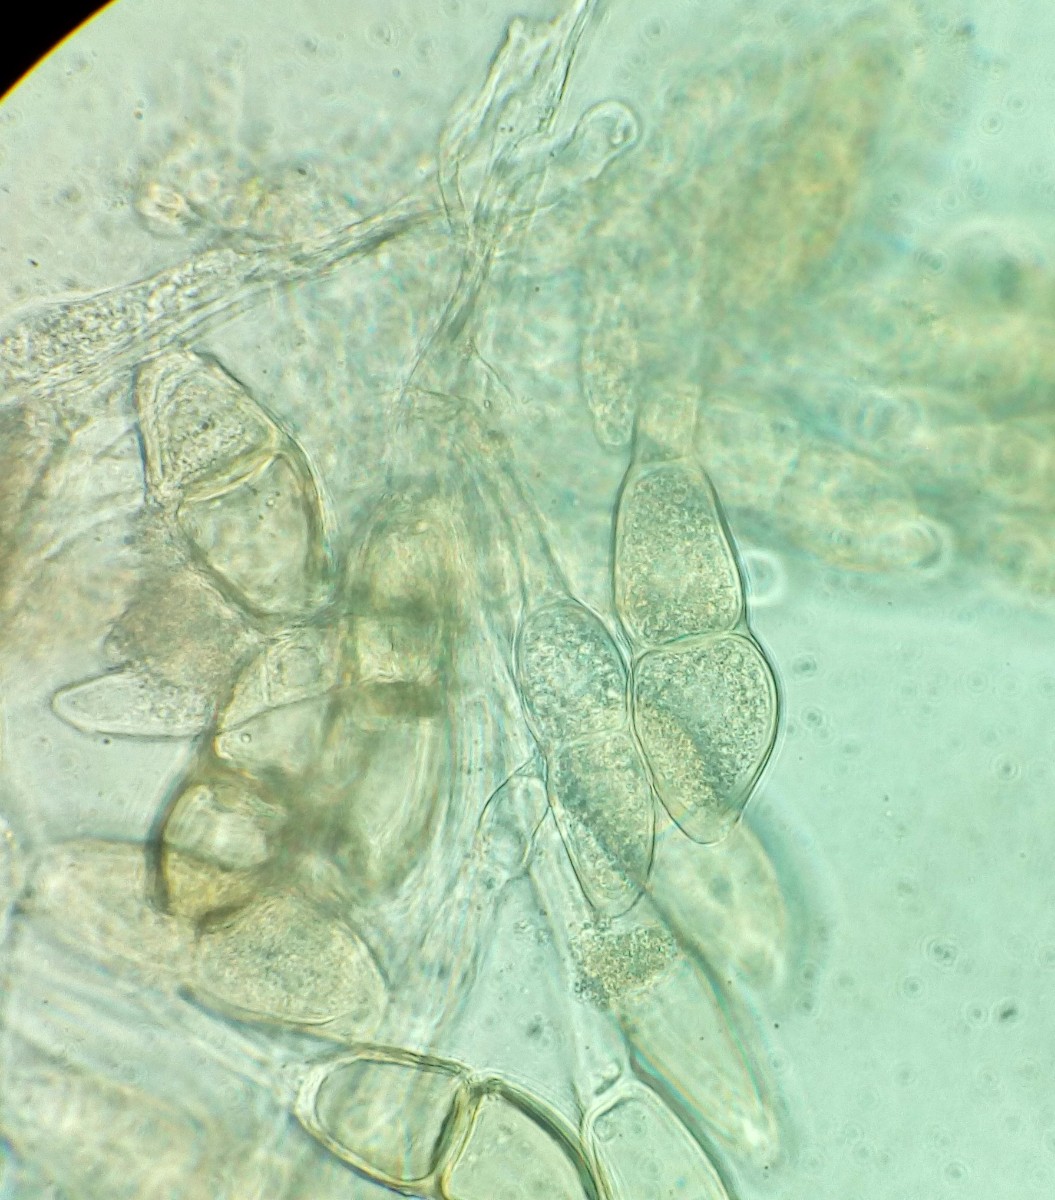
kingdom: Fungi
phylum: Basidiomycota
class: Pucciniomycetes
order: Pucciniales
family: Pucciniaceae
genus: Puccinia
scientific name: Puccinia malvacearum
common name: stokrose-tvecellerust
